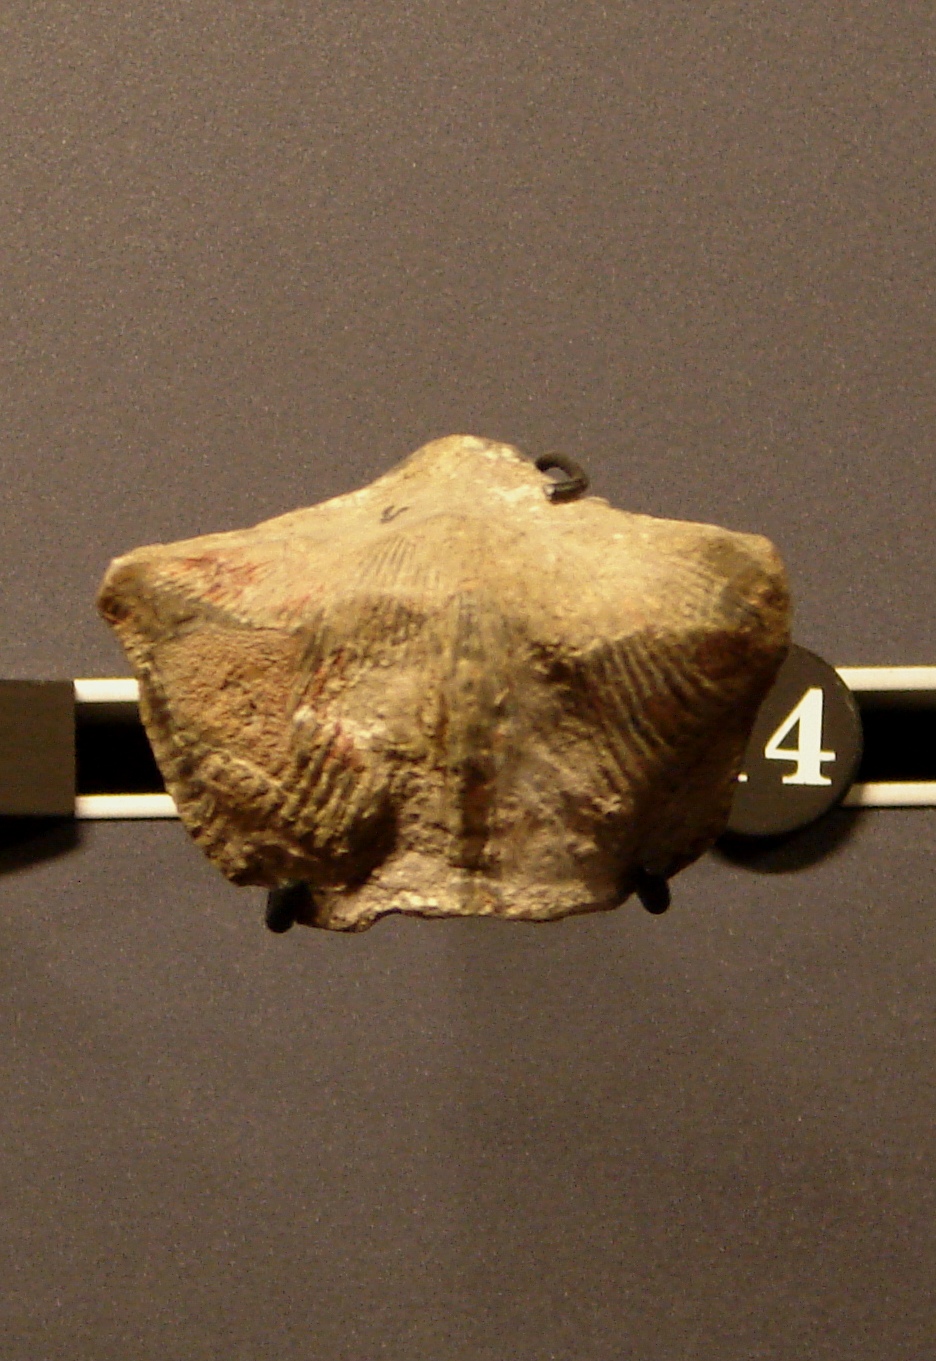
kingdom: Animalia
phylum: Brachiopoda
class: Rhynchonellata
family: Cyrtospiriferidae
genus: Cyrtospirifer
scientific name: Cyrtospirifer
